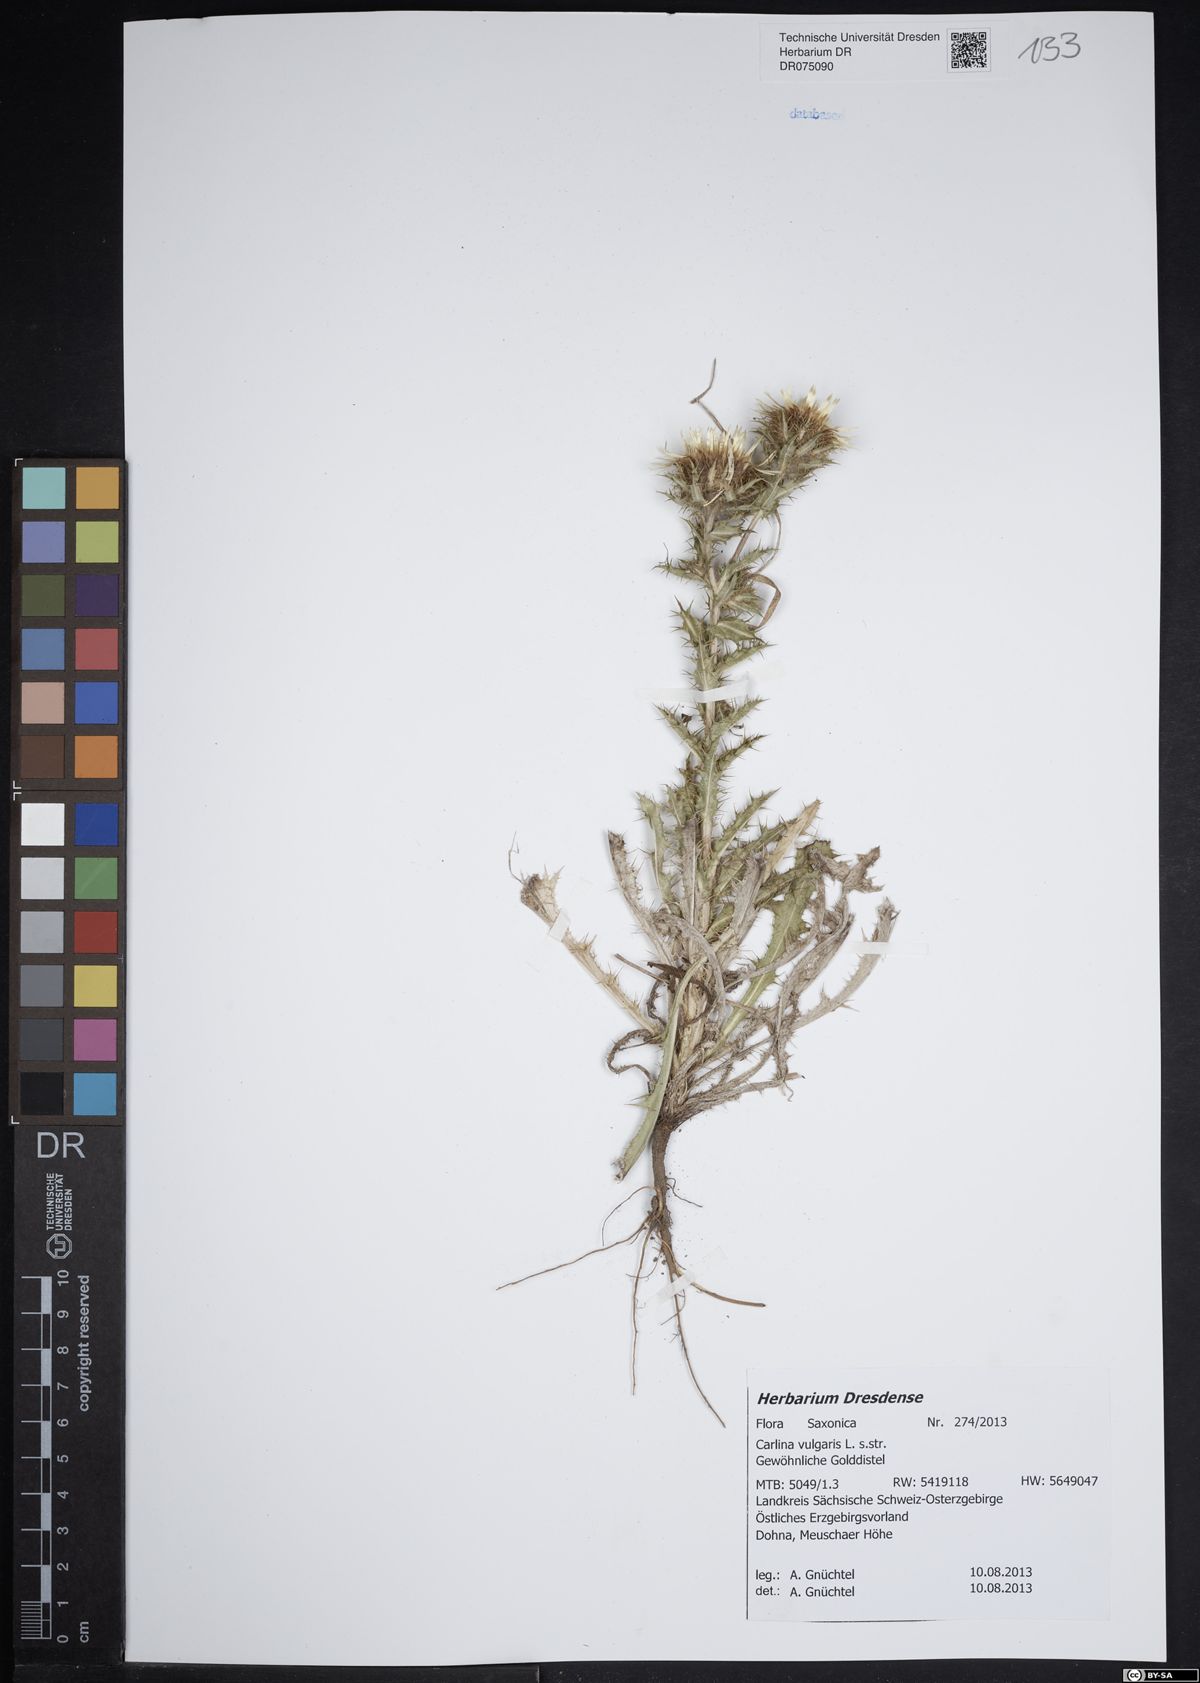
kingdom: Plantae
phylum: Tracheophyta
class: Magnoliopsida
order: Asterales
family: Asteraceae
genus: Carlina
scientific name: Carlina vulgaris
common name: Carline thistle
